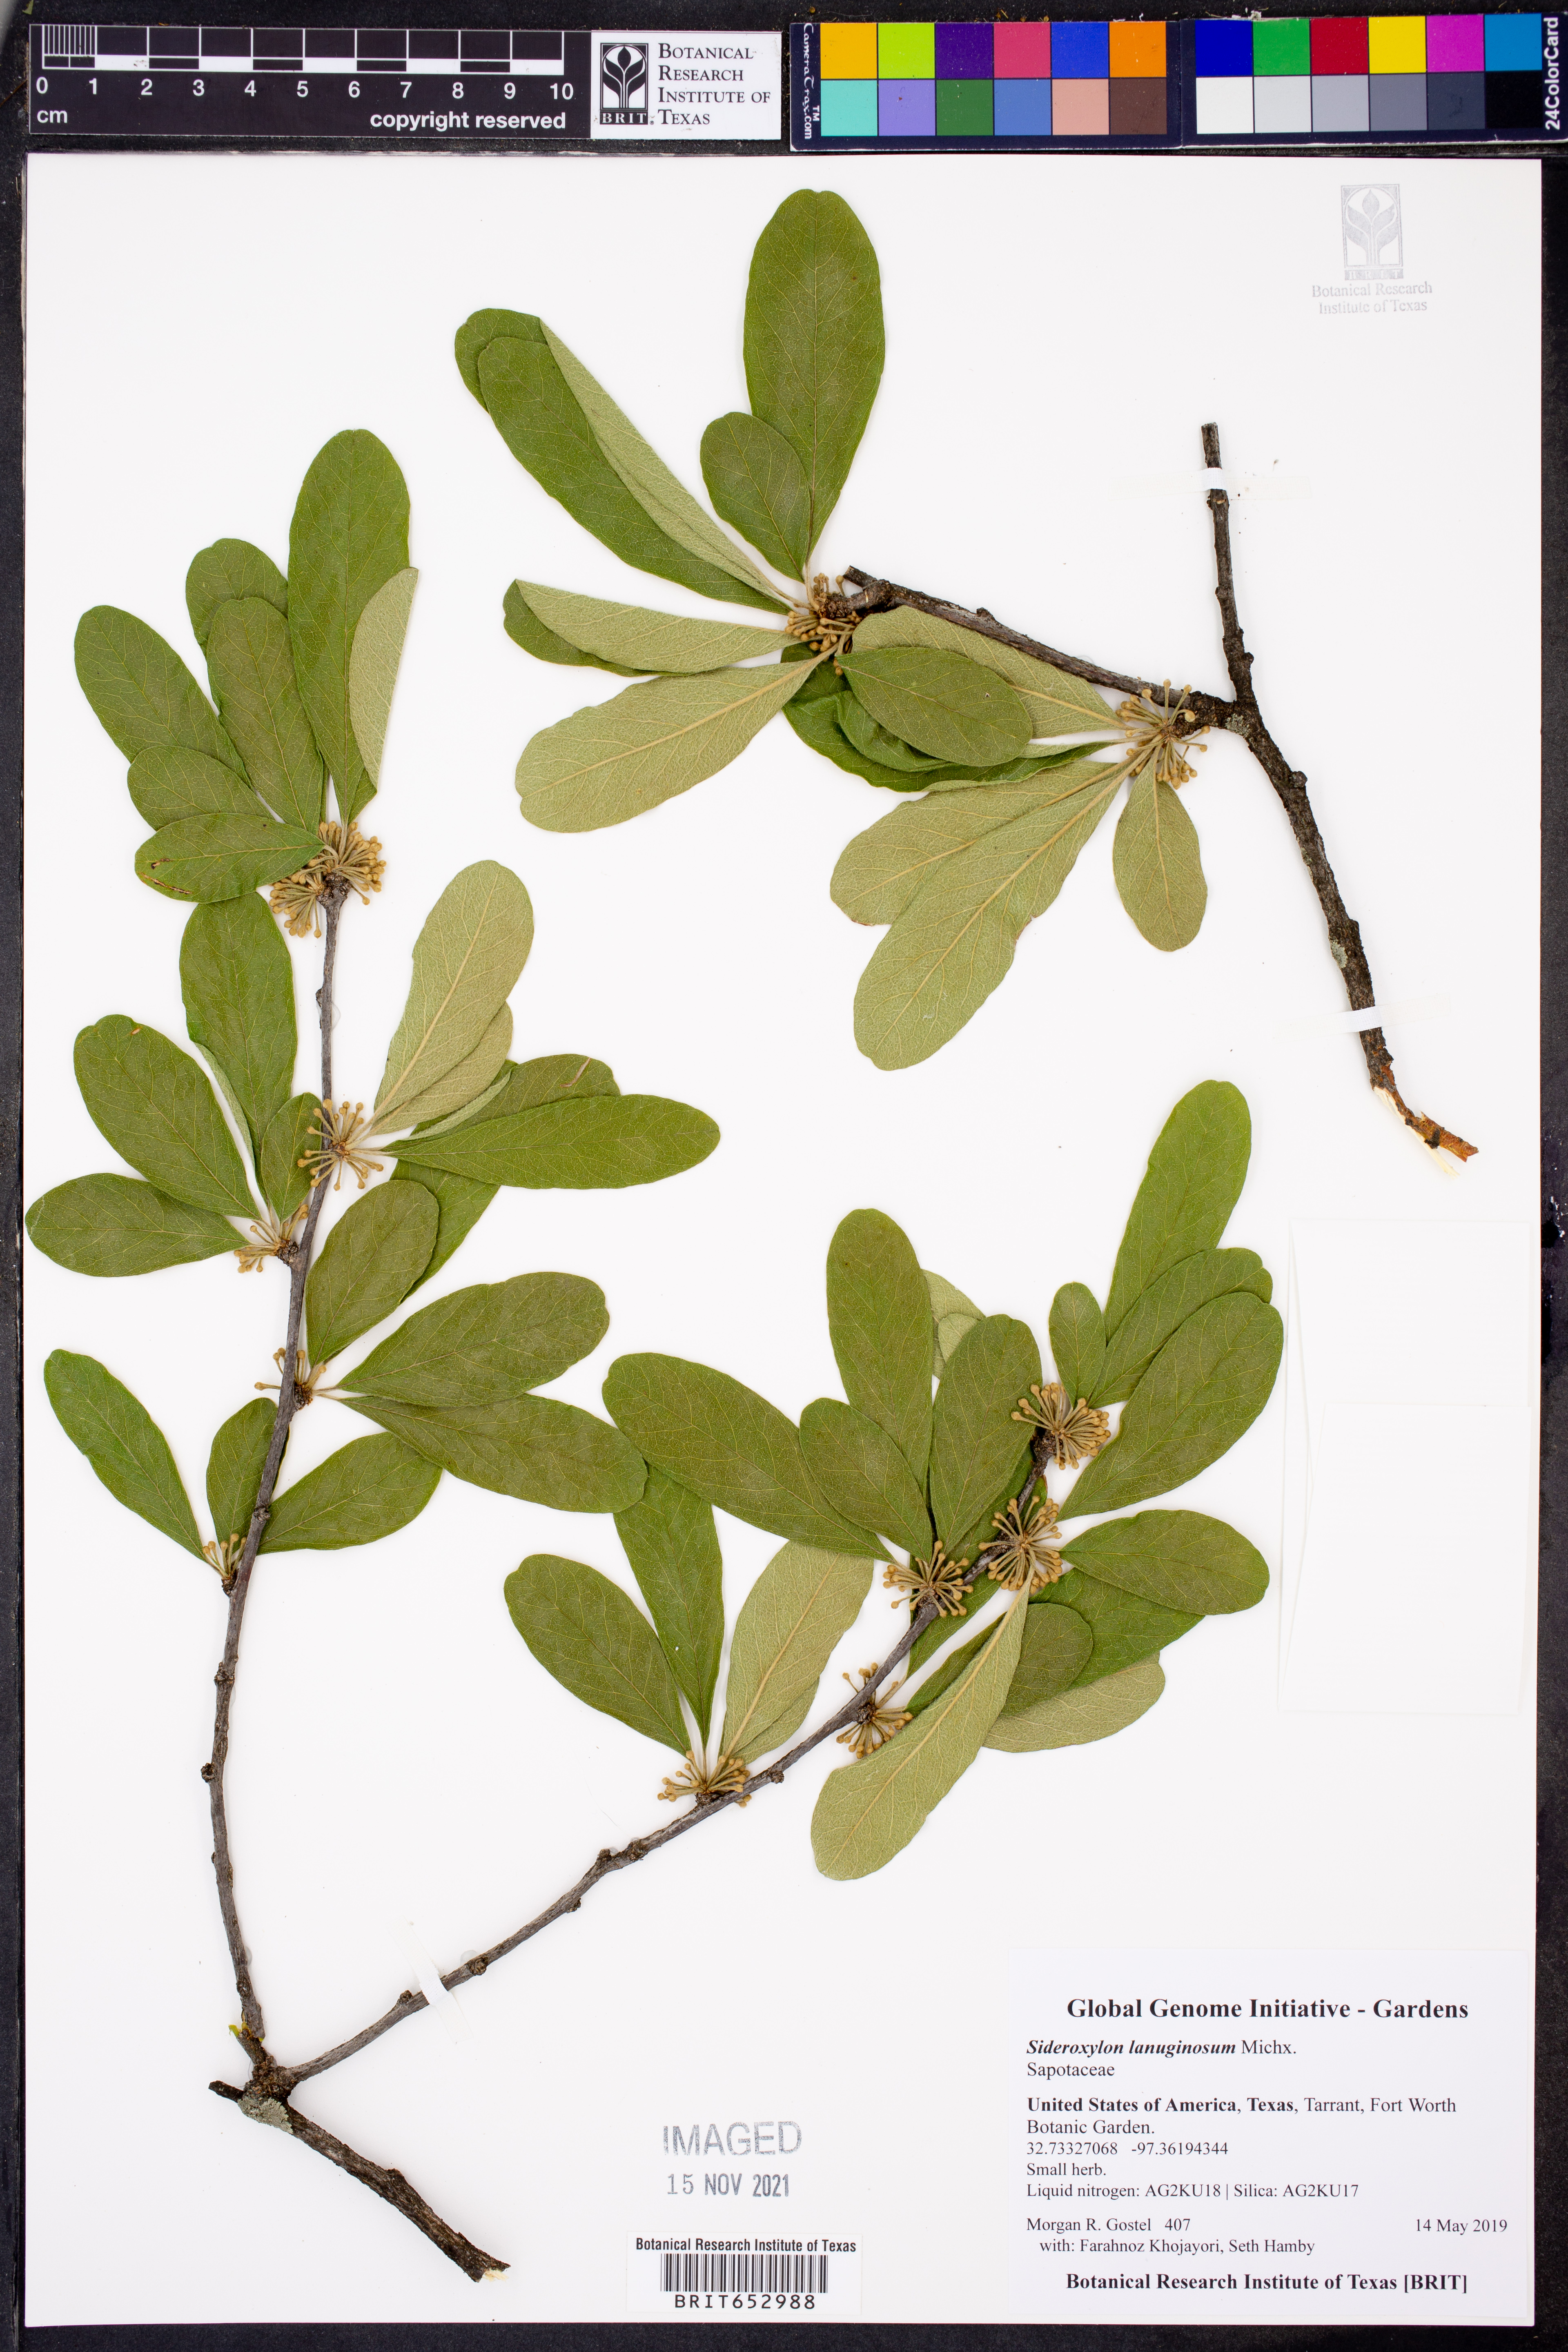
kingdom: Plantae
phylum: Tracheophyta
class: Magnoliopsida
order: Ericales
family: Sapotaceae
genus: Sideroxylon
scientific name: Sideroxylon lanuginosum
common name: Chittamwood
